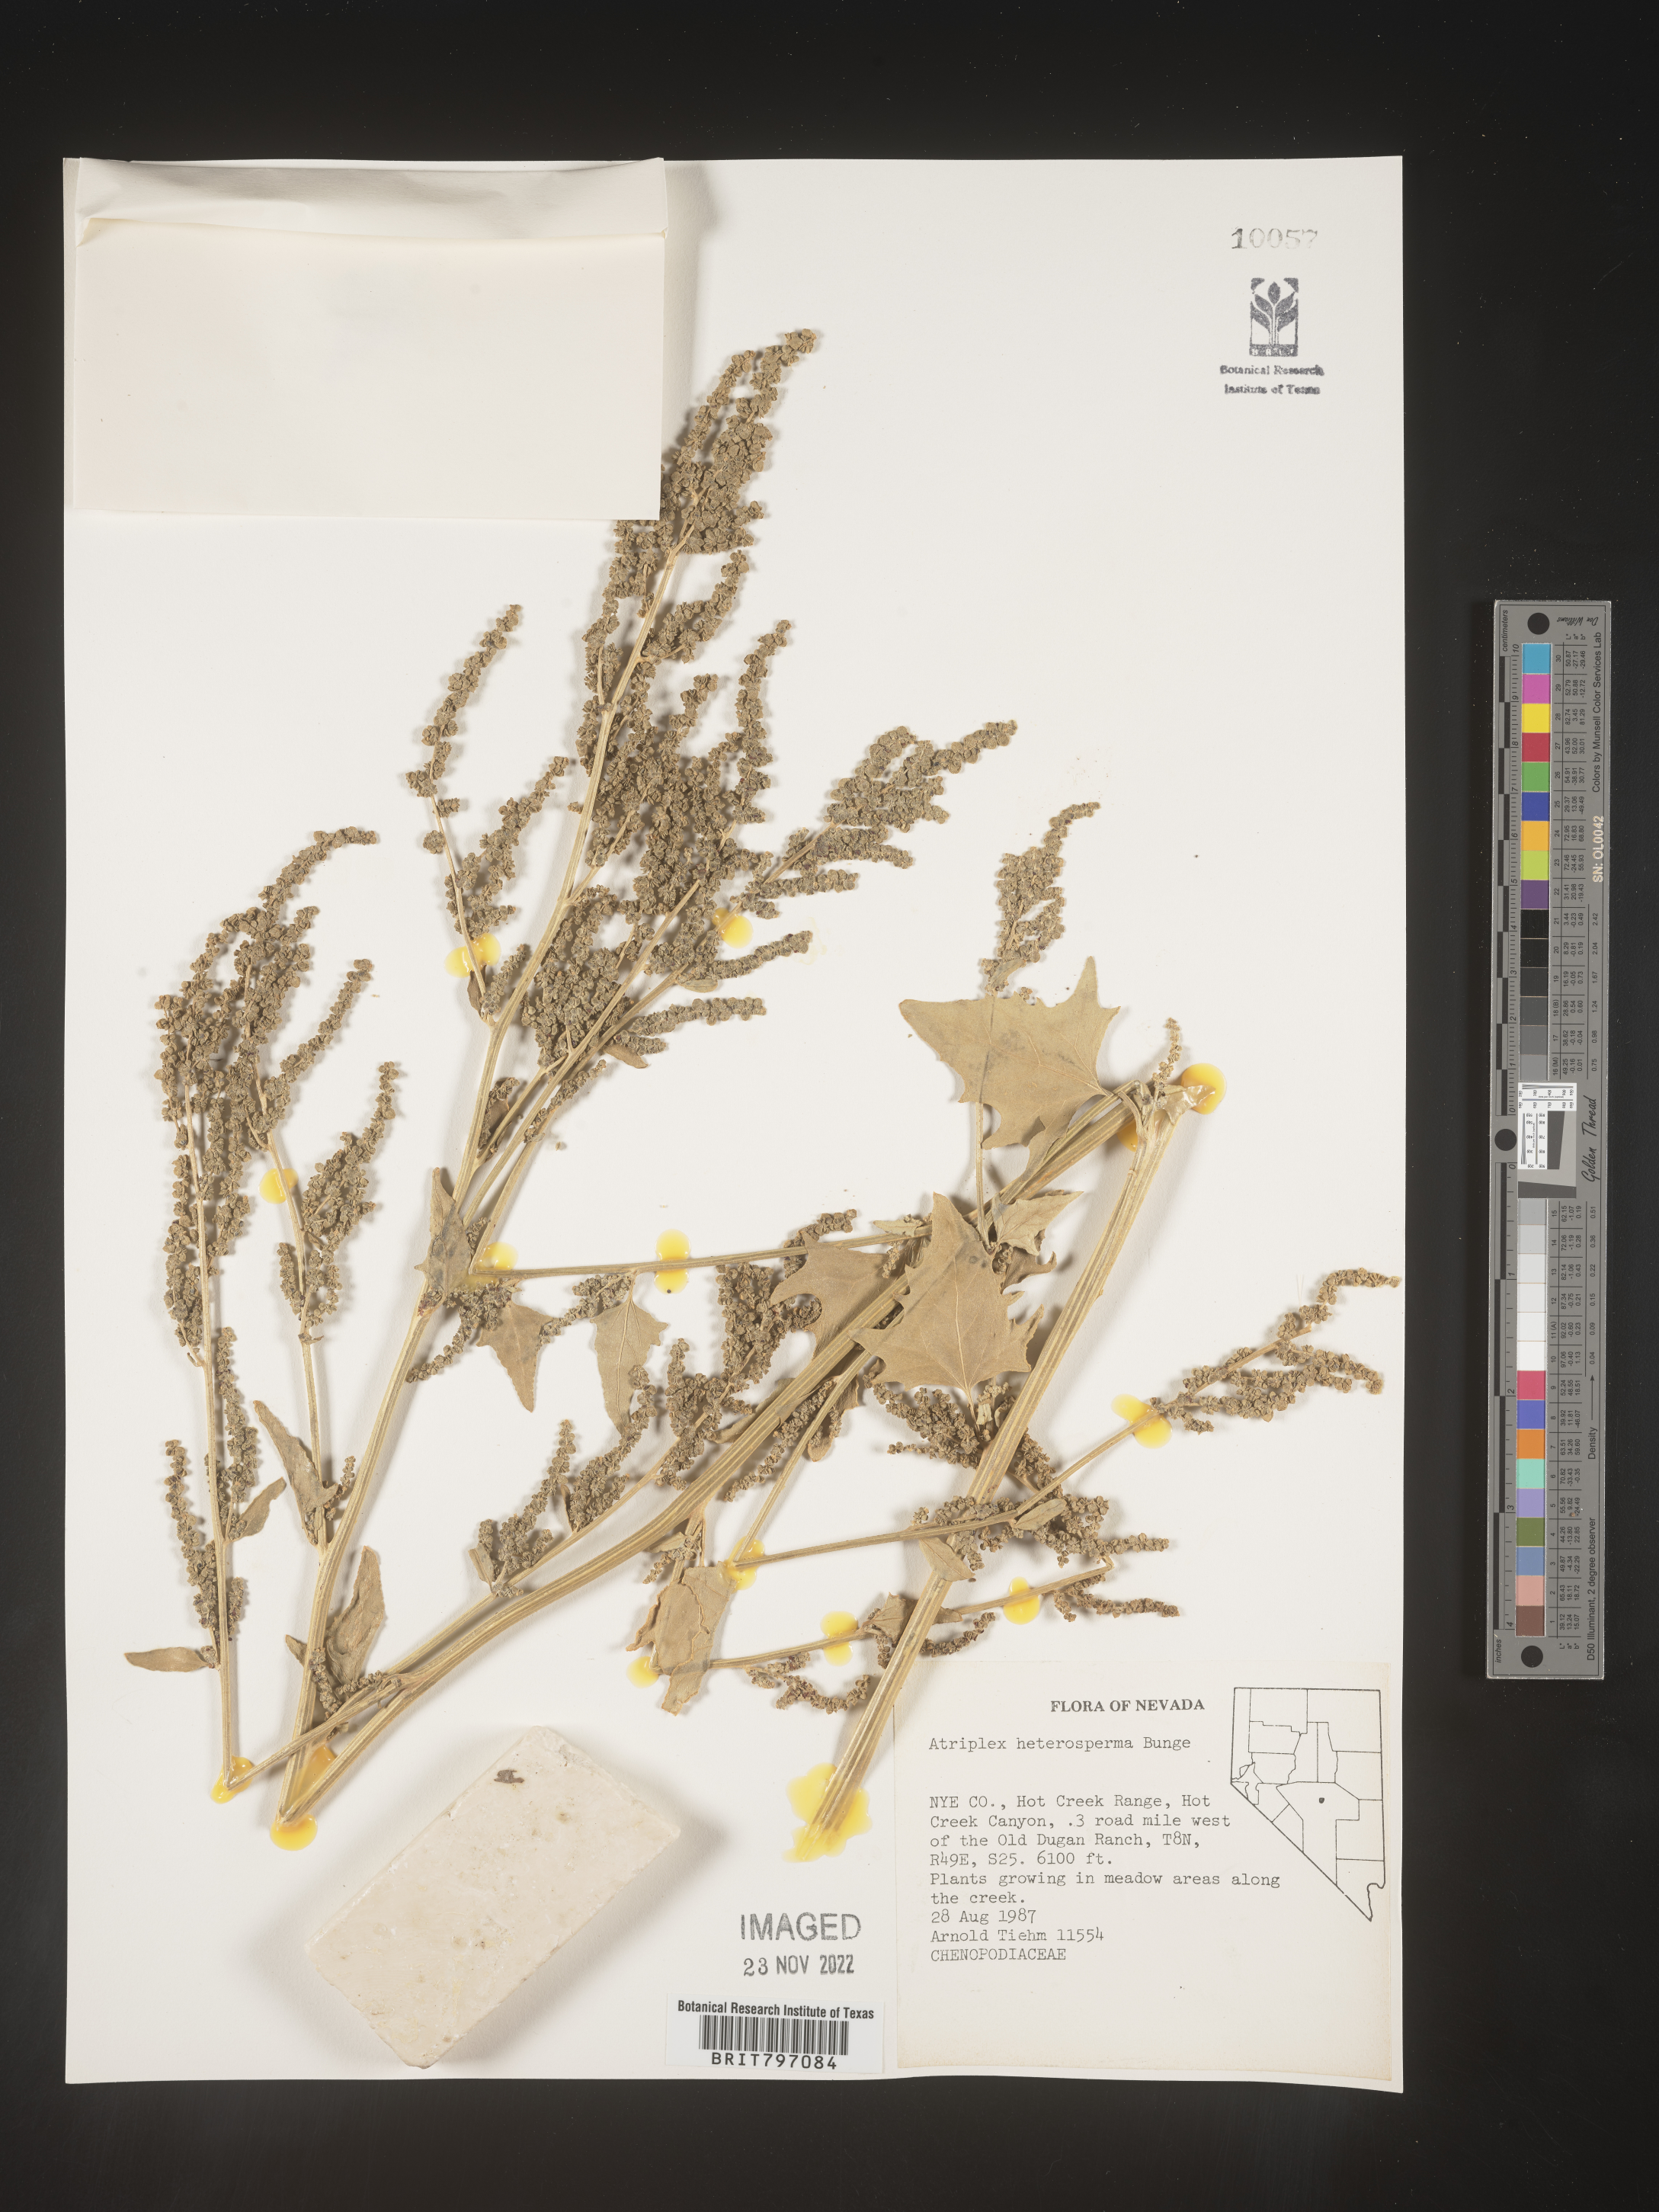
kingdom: Plantae
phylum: Tracheophyta
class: Magnoliopsida
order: Caryophyllales
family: Amaranthaceae
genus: Atriplex
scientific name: Atriplex
